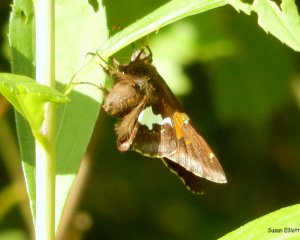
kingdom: Animalia
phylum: Arthropoda
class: Insecta
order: Lepidoptera
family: Hesperiidae
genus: Epargyreus
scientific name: Epargyreus clarus
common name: Silver-spotted Skipper
